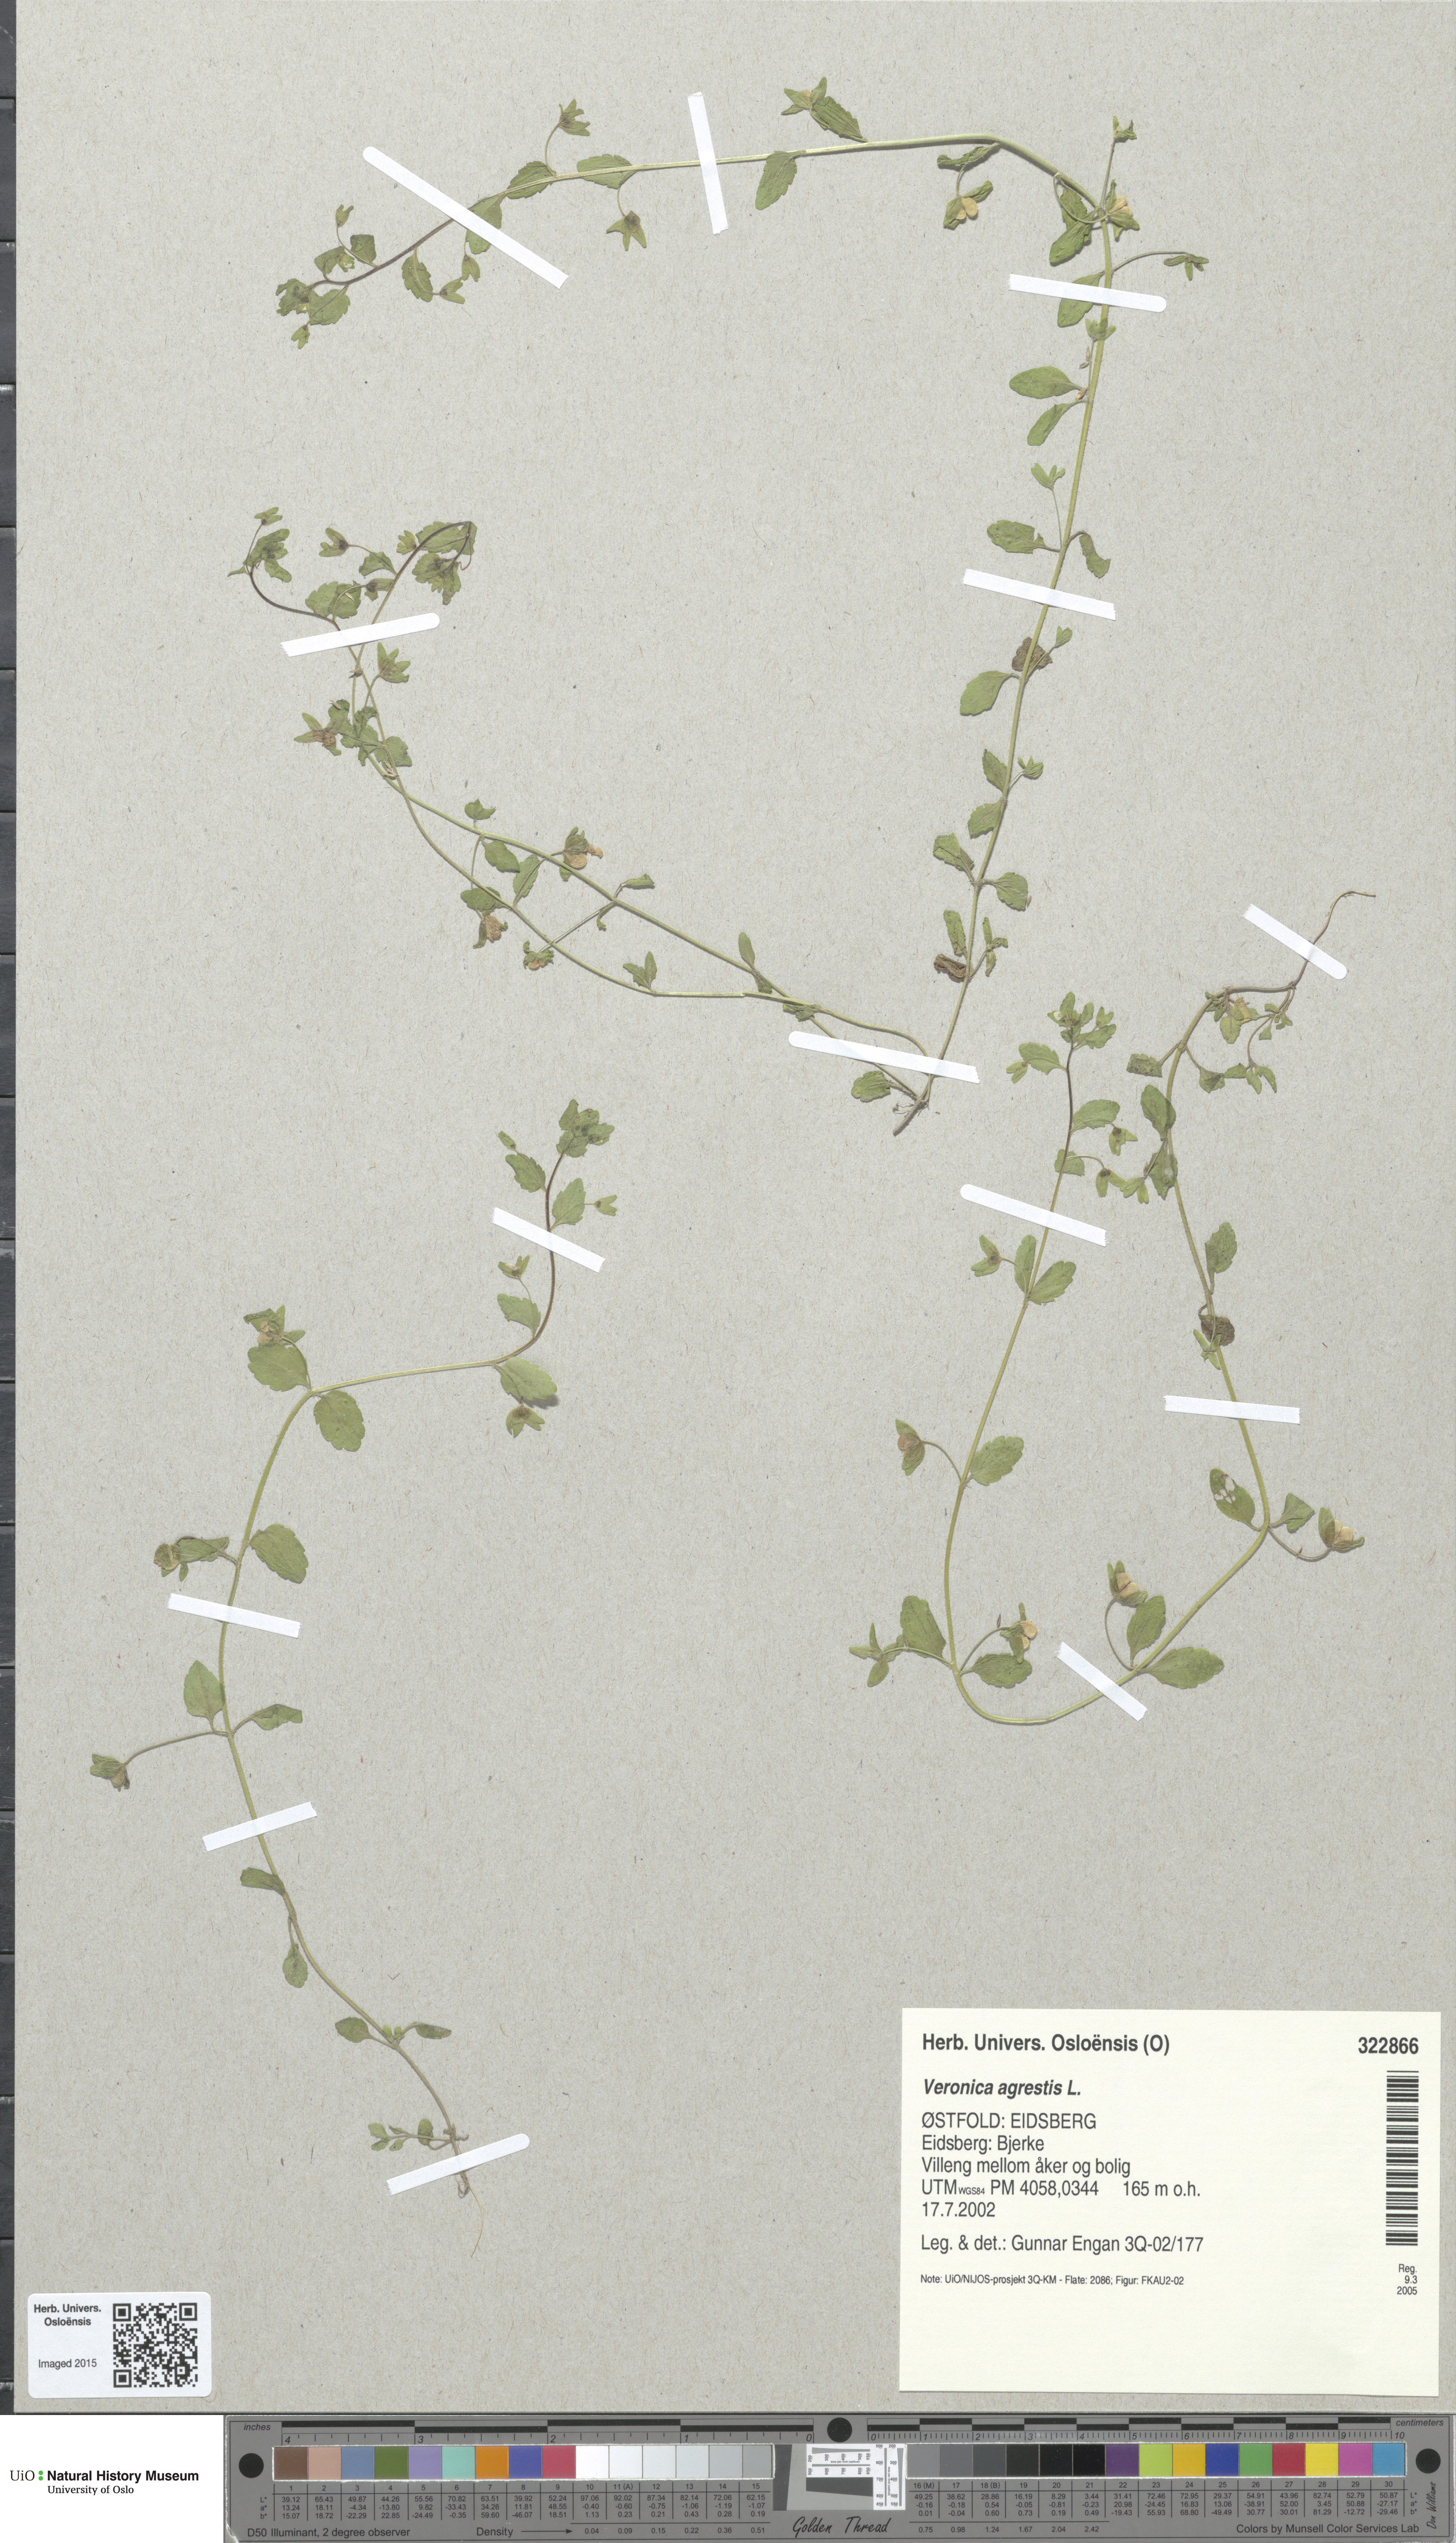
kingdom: Plantae
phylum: Tracheophyta
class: Magnoliopsida
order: Lamiales
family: Plantaginaceae
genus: Veronica
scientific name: Veronica agrestis
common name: Green field-speedwell
